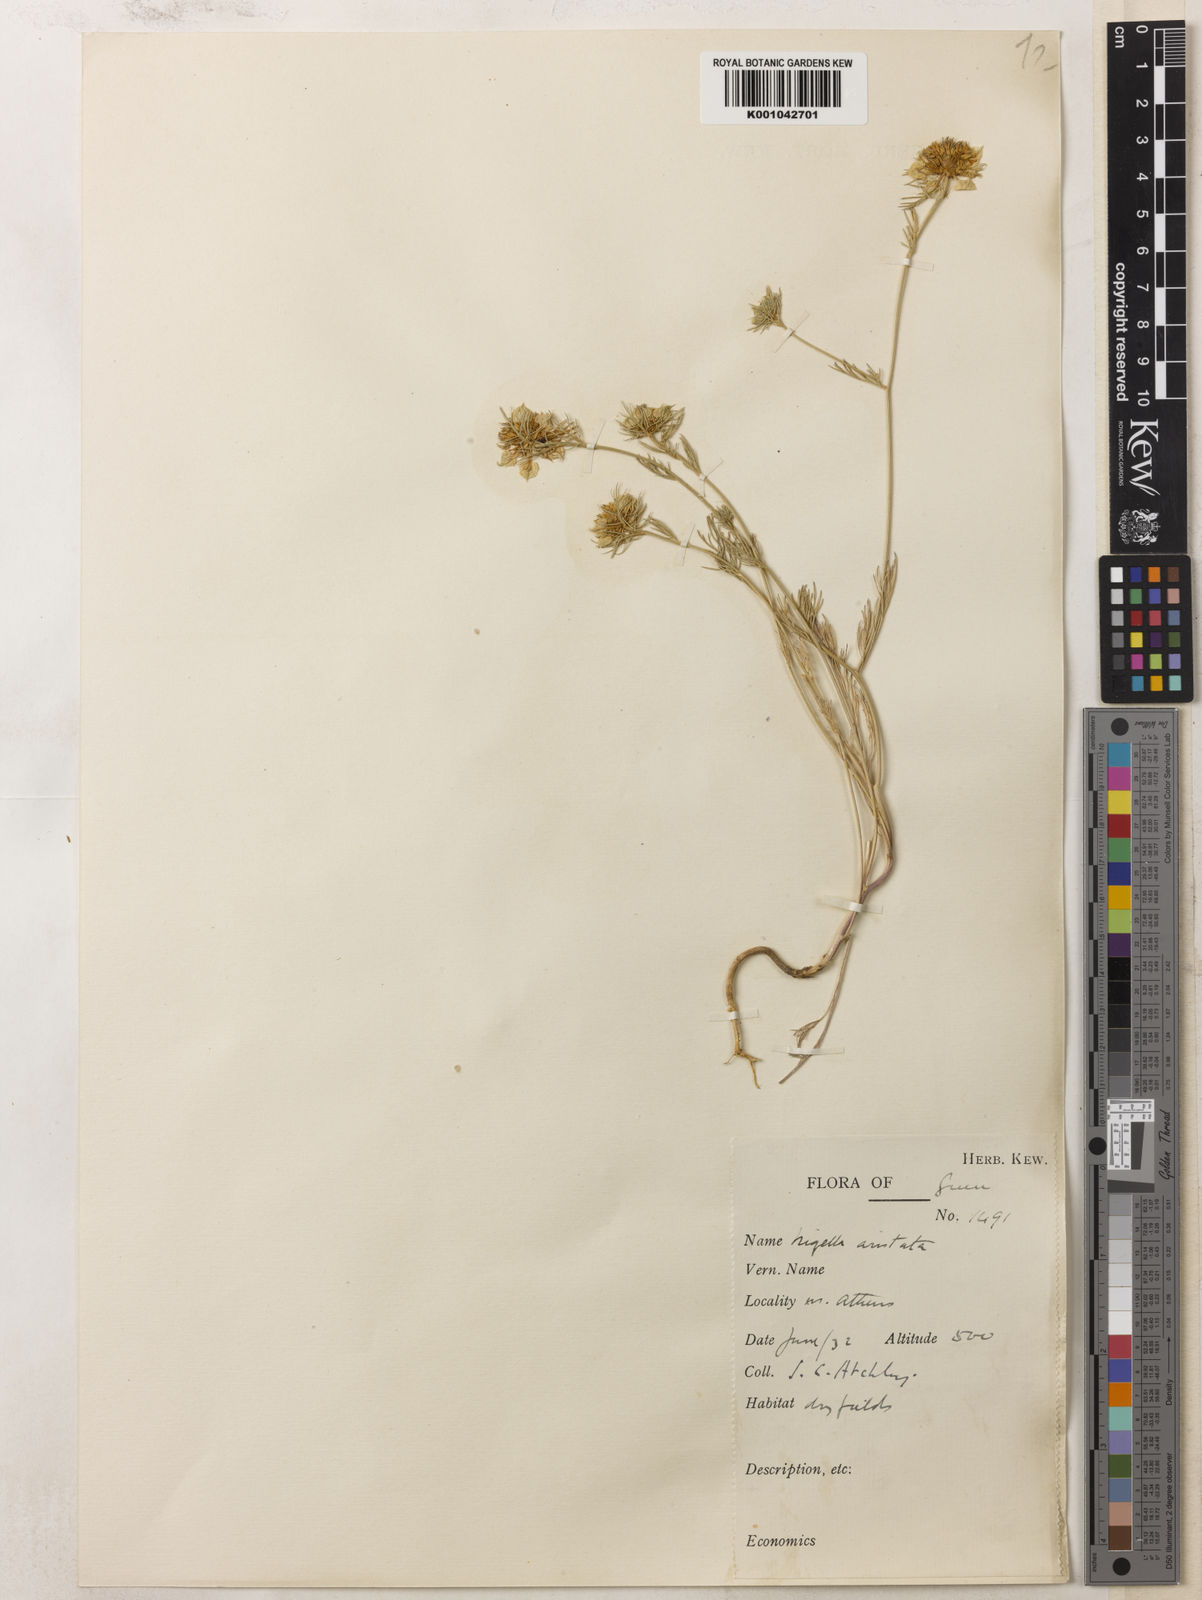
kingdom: Plantae
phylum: Tracheophyta
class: Magnoliopsida
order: Ranunculales
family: Ranunculaceae
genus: Nigella
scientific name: Nigella arvensis
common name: Wild fennel-flower
